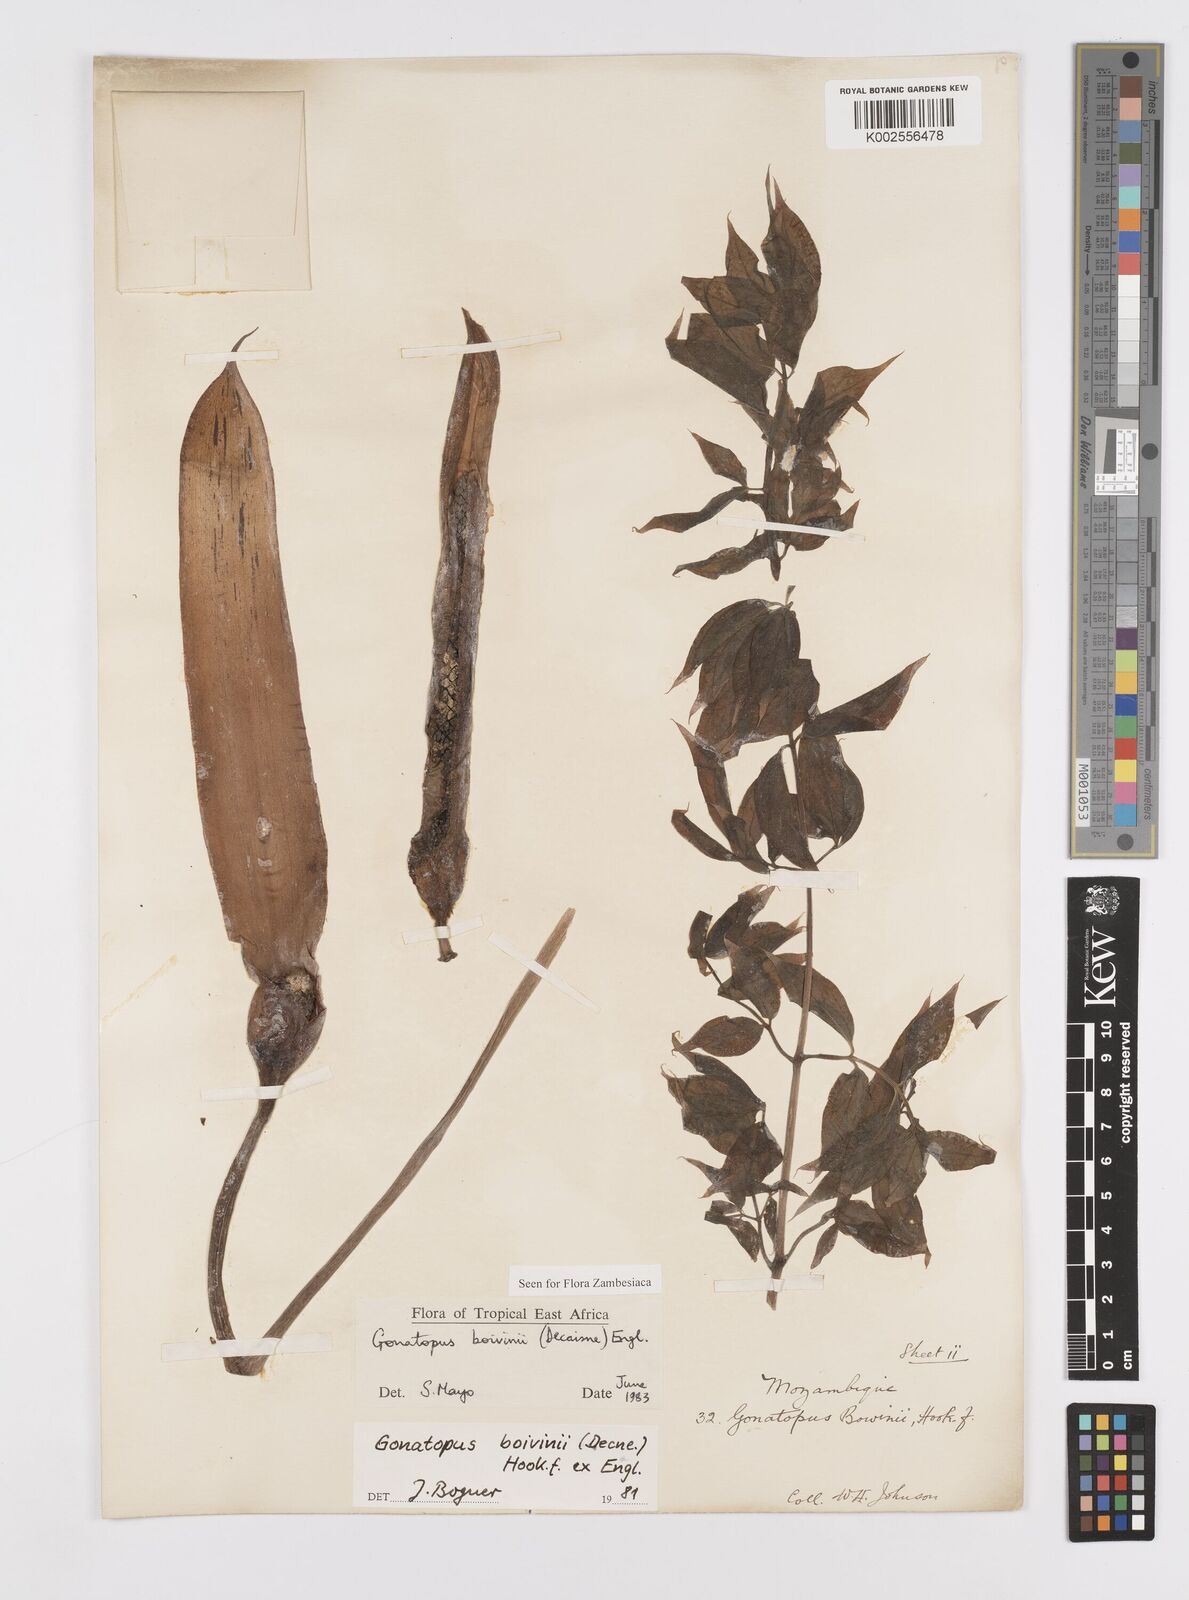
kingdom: Plantae
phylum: Tracheophyta
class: Liliopsida
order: Alismatales
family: Araceae
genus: Gonatopus
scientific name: Gonatopus boivinii
